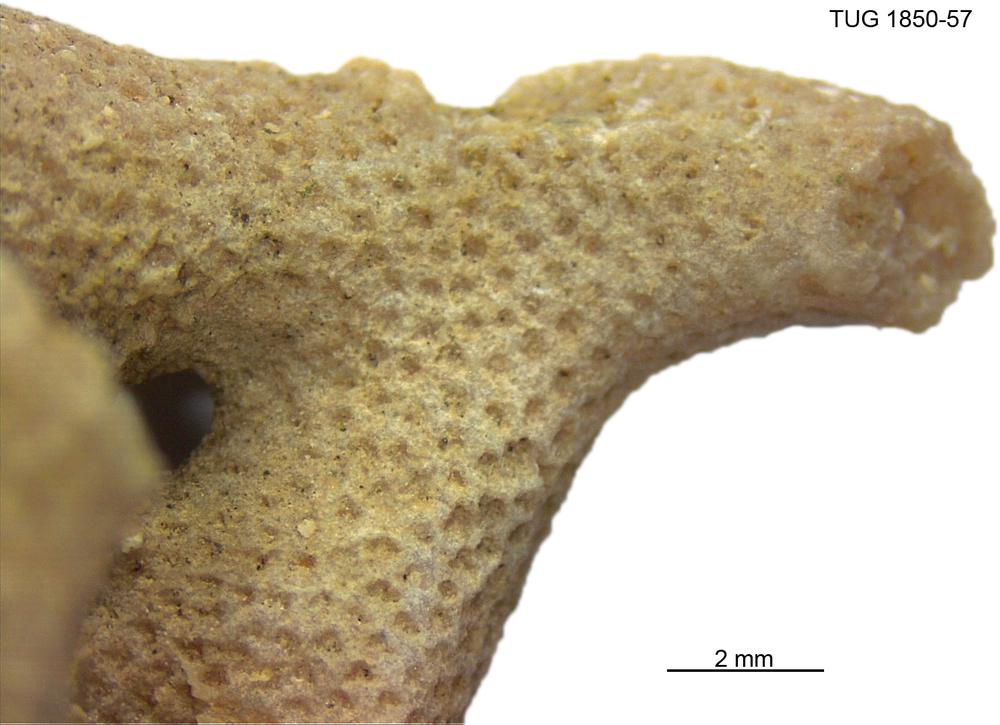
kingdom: Animalia
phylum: Cnidaria
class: Anthozoa
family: Coenitidae
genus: Coenites
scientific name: Coenites juniperinus
